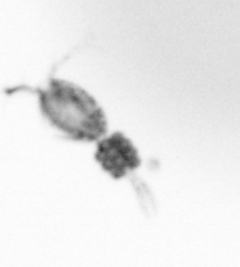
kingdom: Animalia
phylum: Arthropoda
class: Copepoda
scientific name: Copepoda
